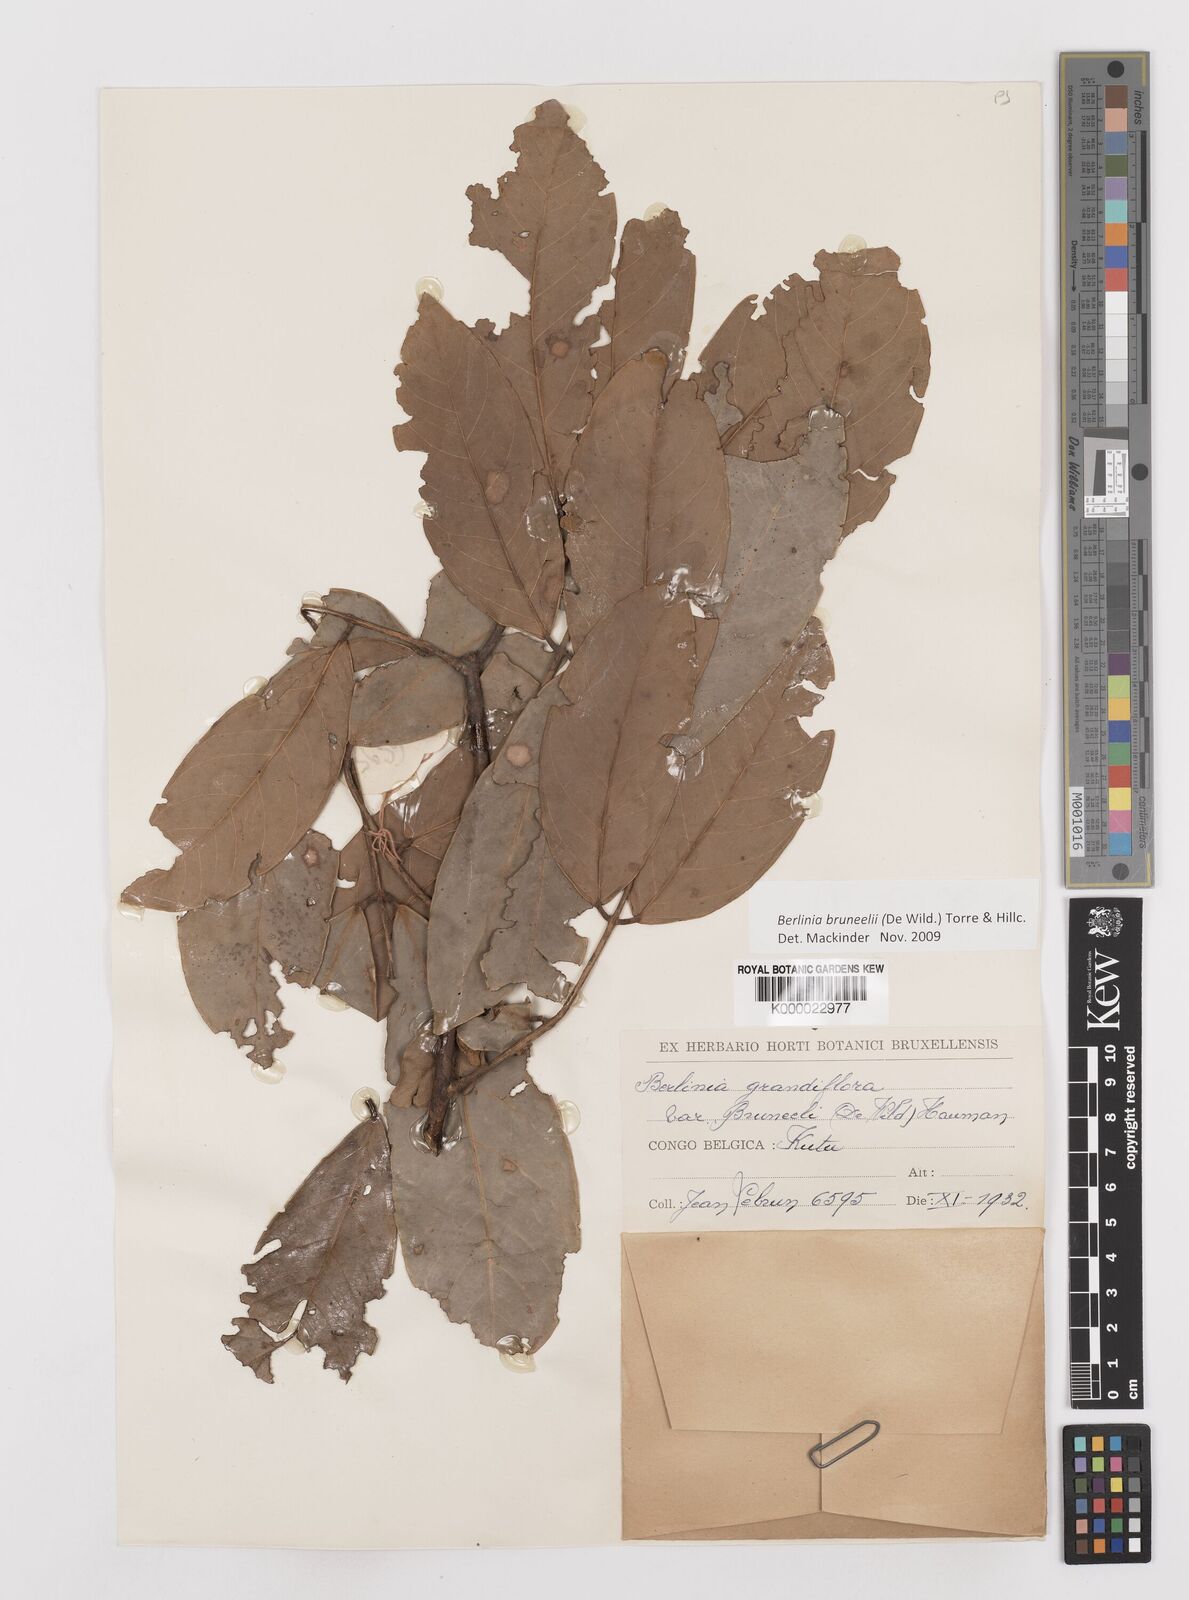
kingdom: Plantae
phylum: Tracheophyta
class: Magnoliopsida
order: Fabales
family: Fabaceae
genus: Berlinia
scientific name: Berlinia bruneelii
